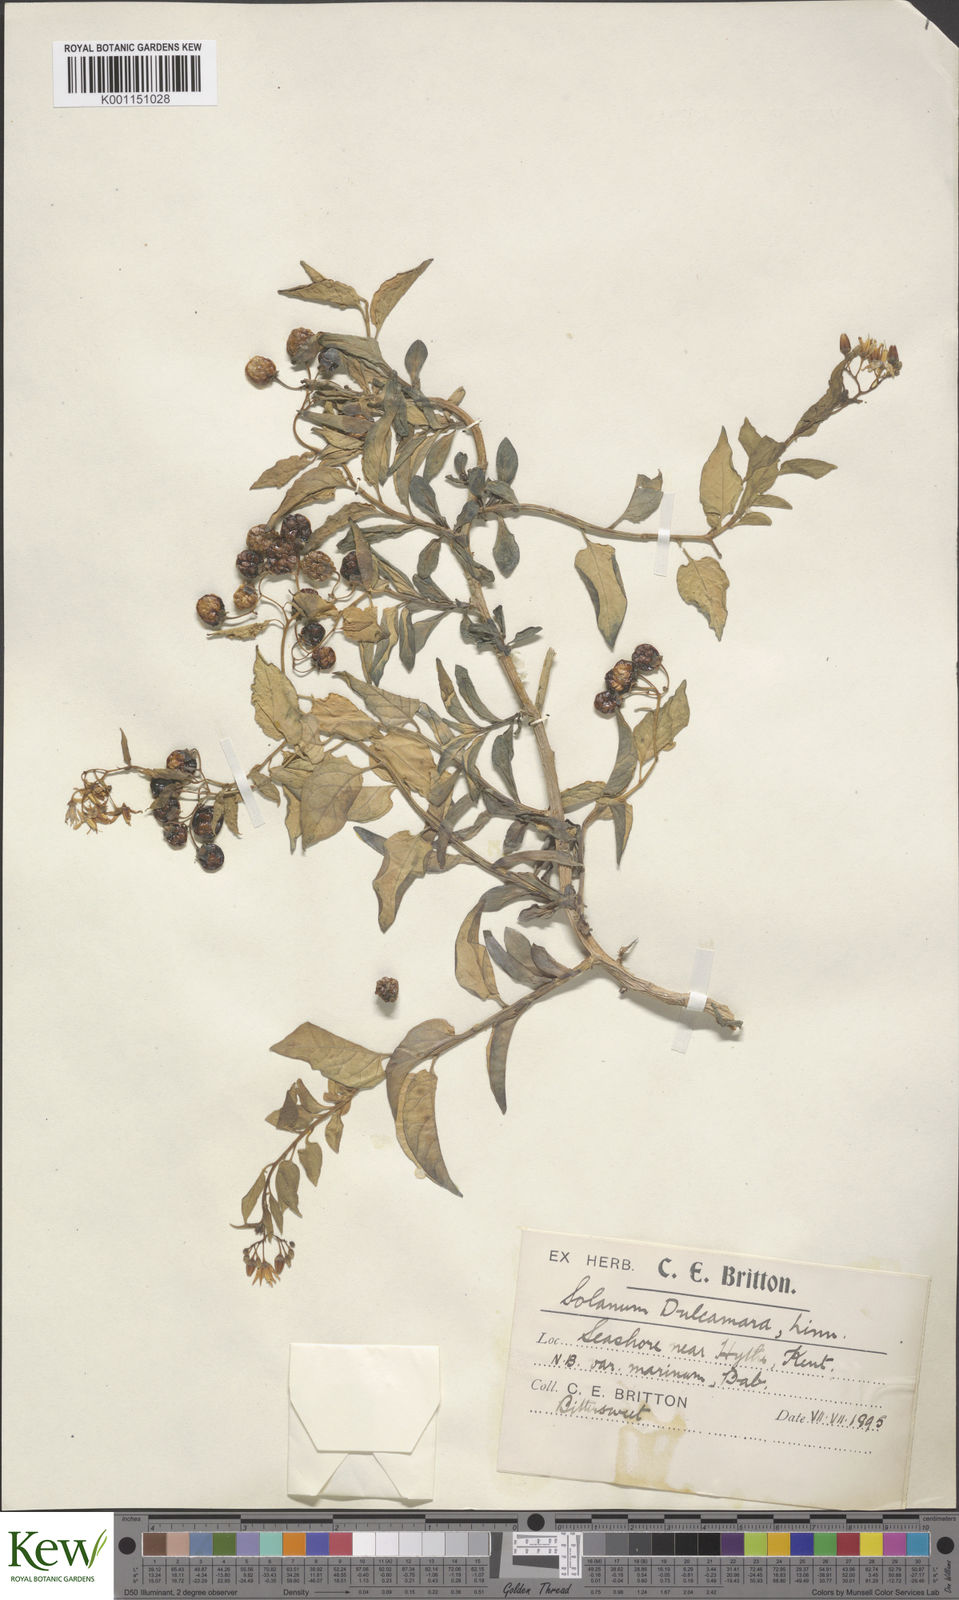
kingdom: Plantae
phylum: Tracheophyta
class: Magnoliopsida
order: Solanales
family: Solanaceae
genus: Solanum
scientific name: Solanum dulcamara
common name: Climbing nightshade
